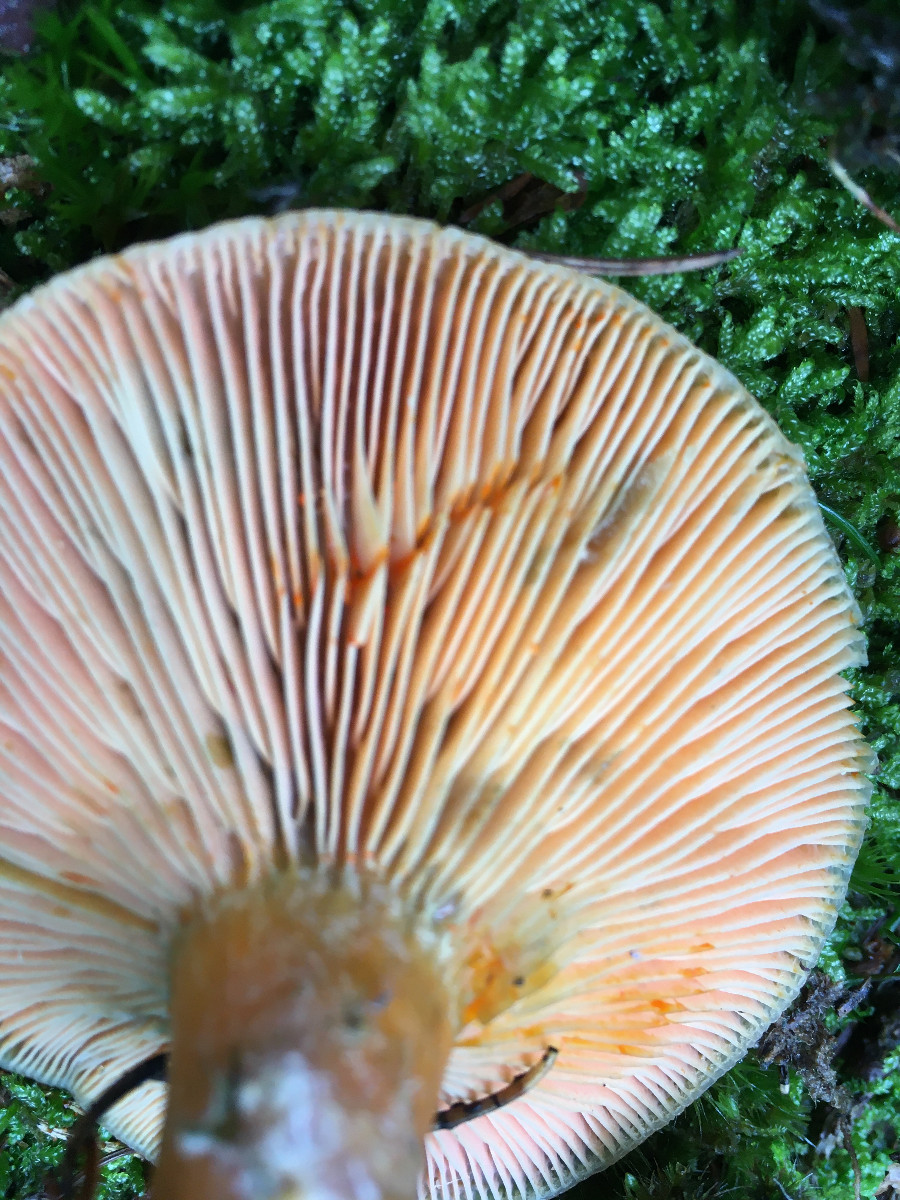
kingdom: Fungi
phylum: Basidiomycota
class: Agaricomycetes
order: Russulales
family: Russulaceae
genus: Lactarius
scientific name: Lactarius deterrimus
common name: gran-mælkehat
